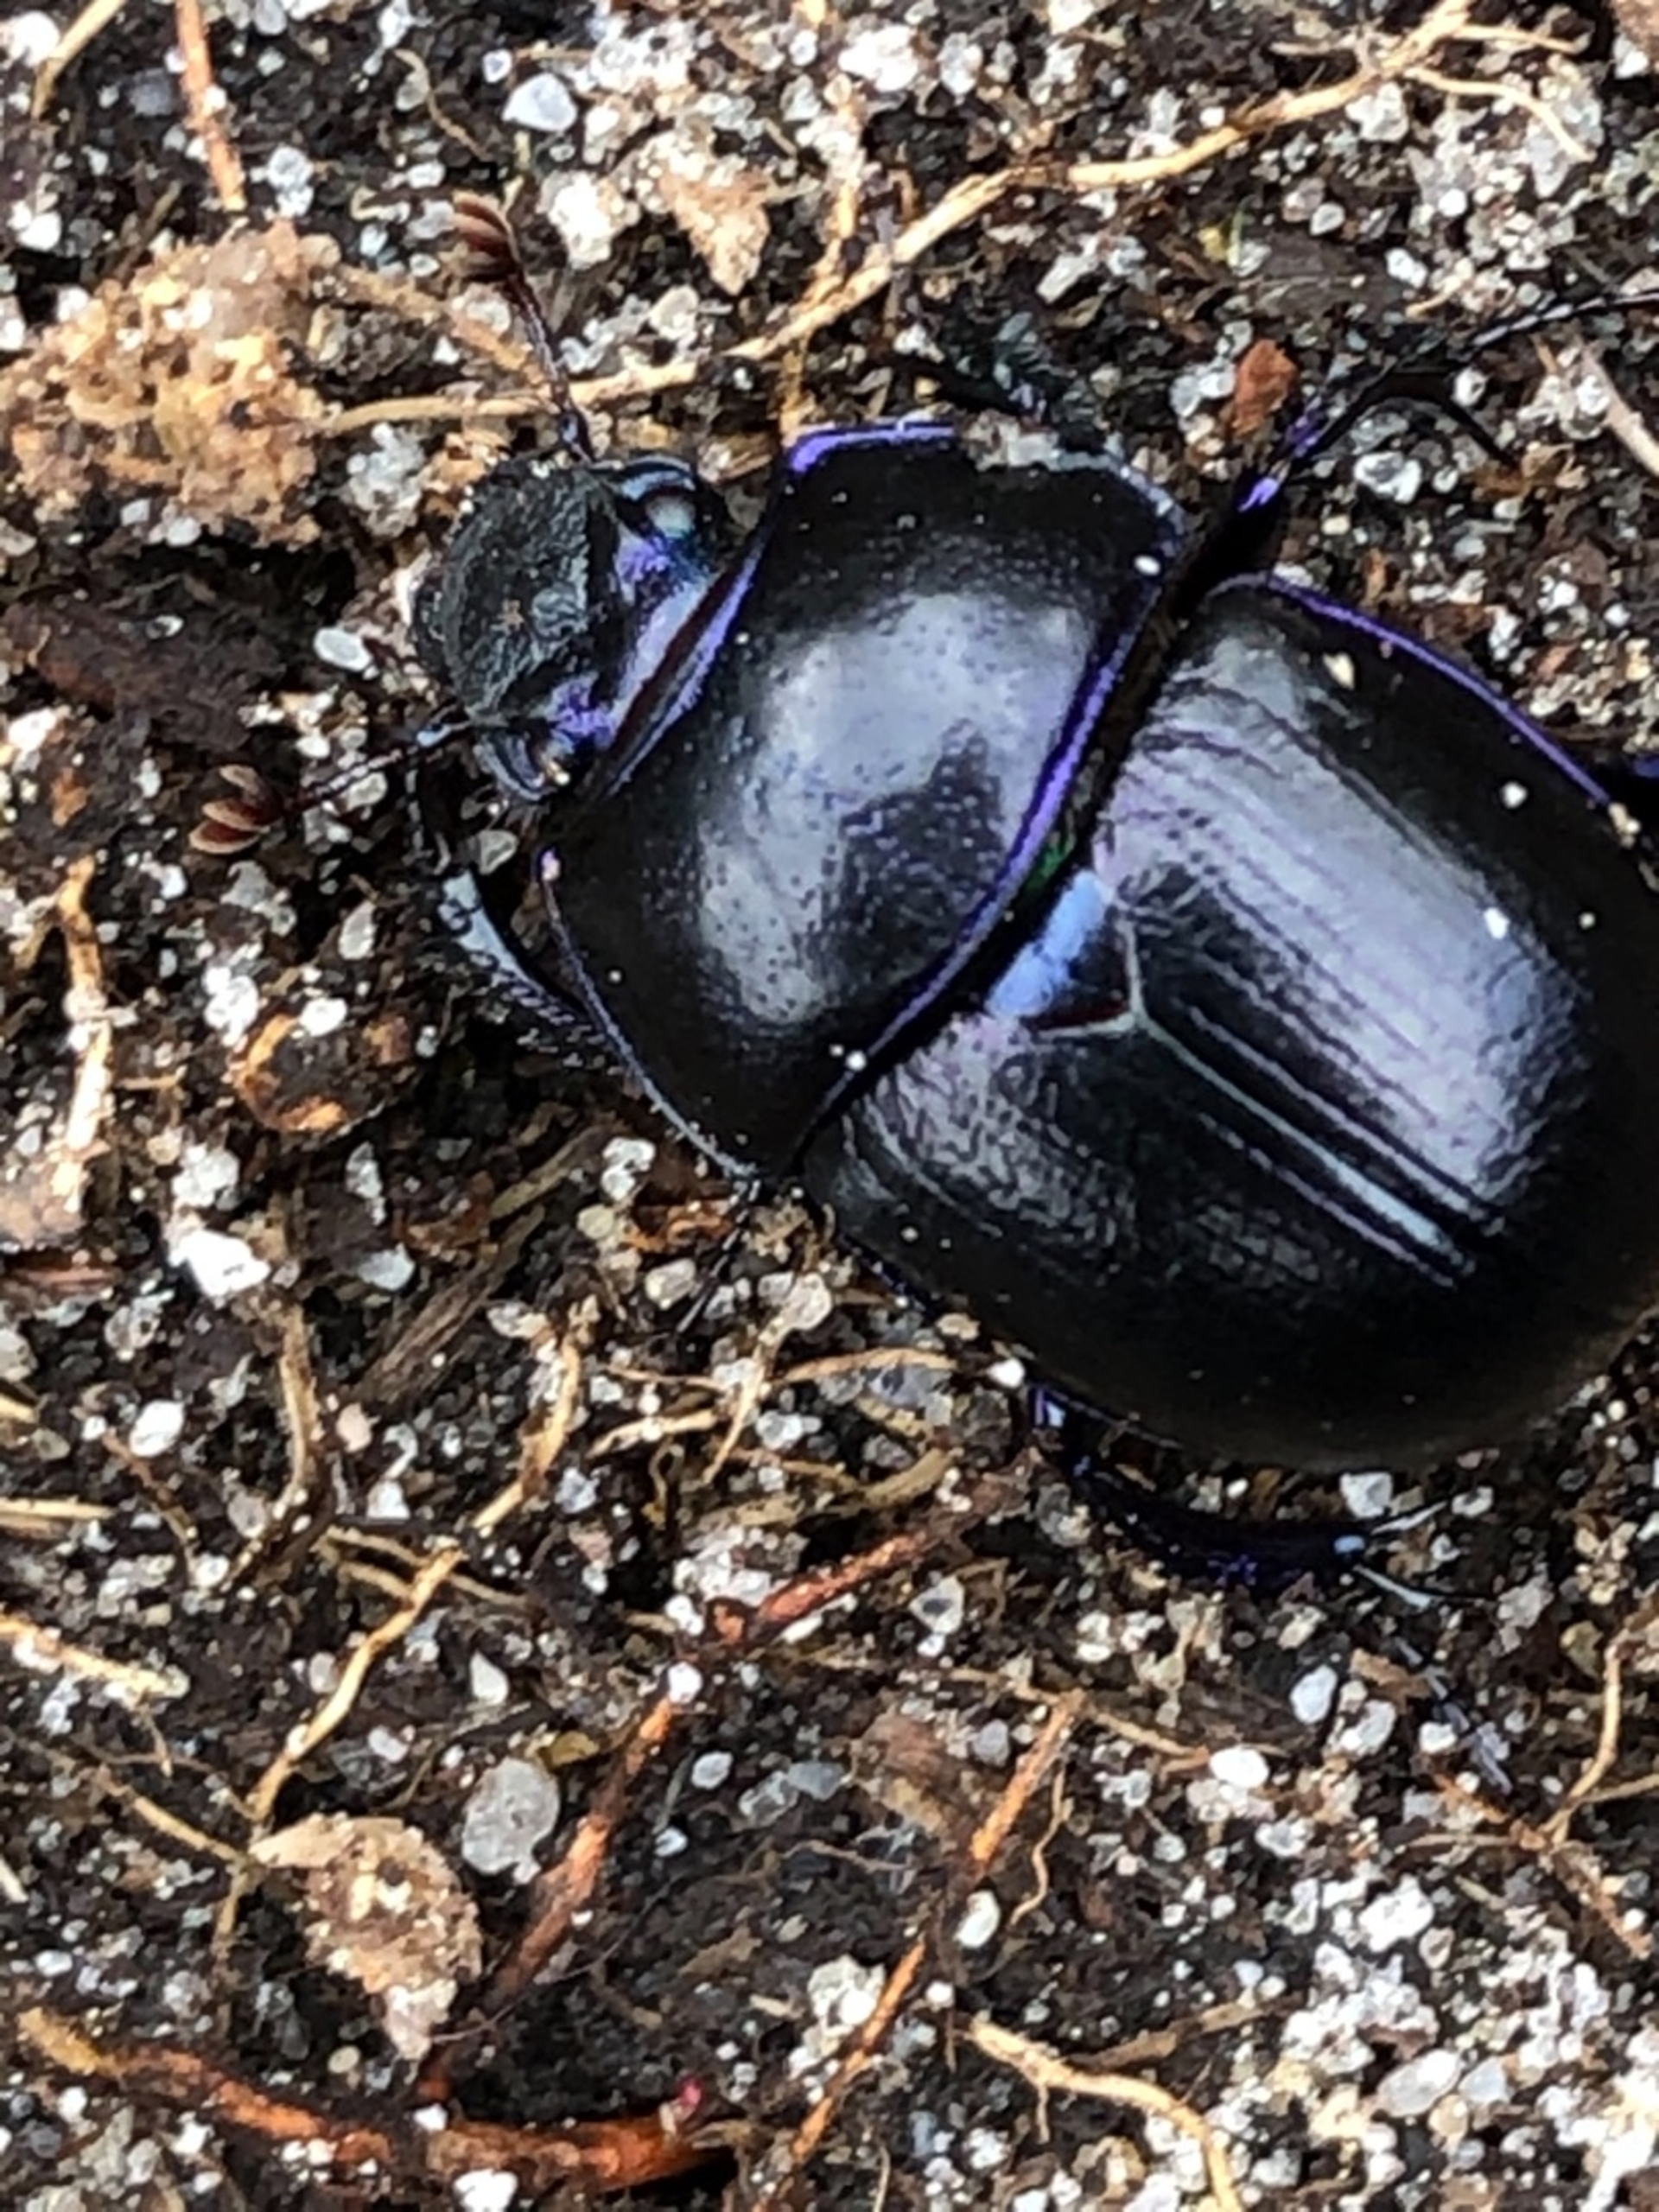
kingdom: Animalia
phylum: Arthropoda
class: Insecta
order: Coleoptera
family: Geotrupidae
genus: Anoplotrupes
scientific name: Anoplotrupes stercorosus
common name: Skovskarnbasse
